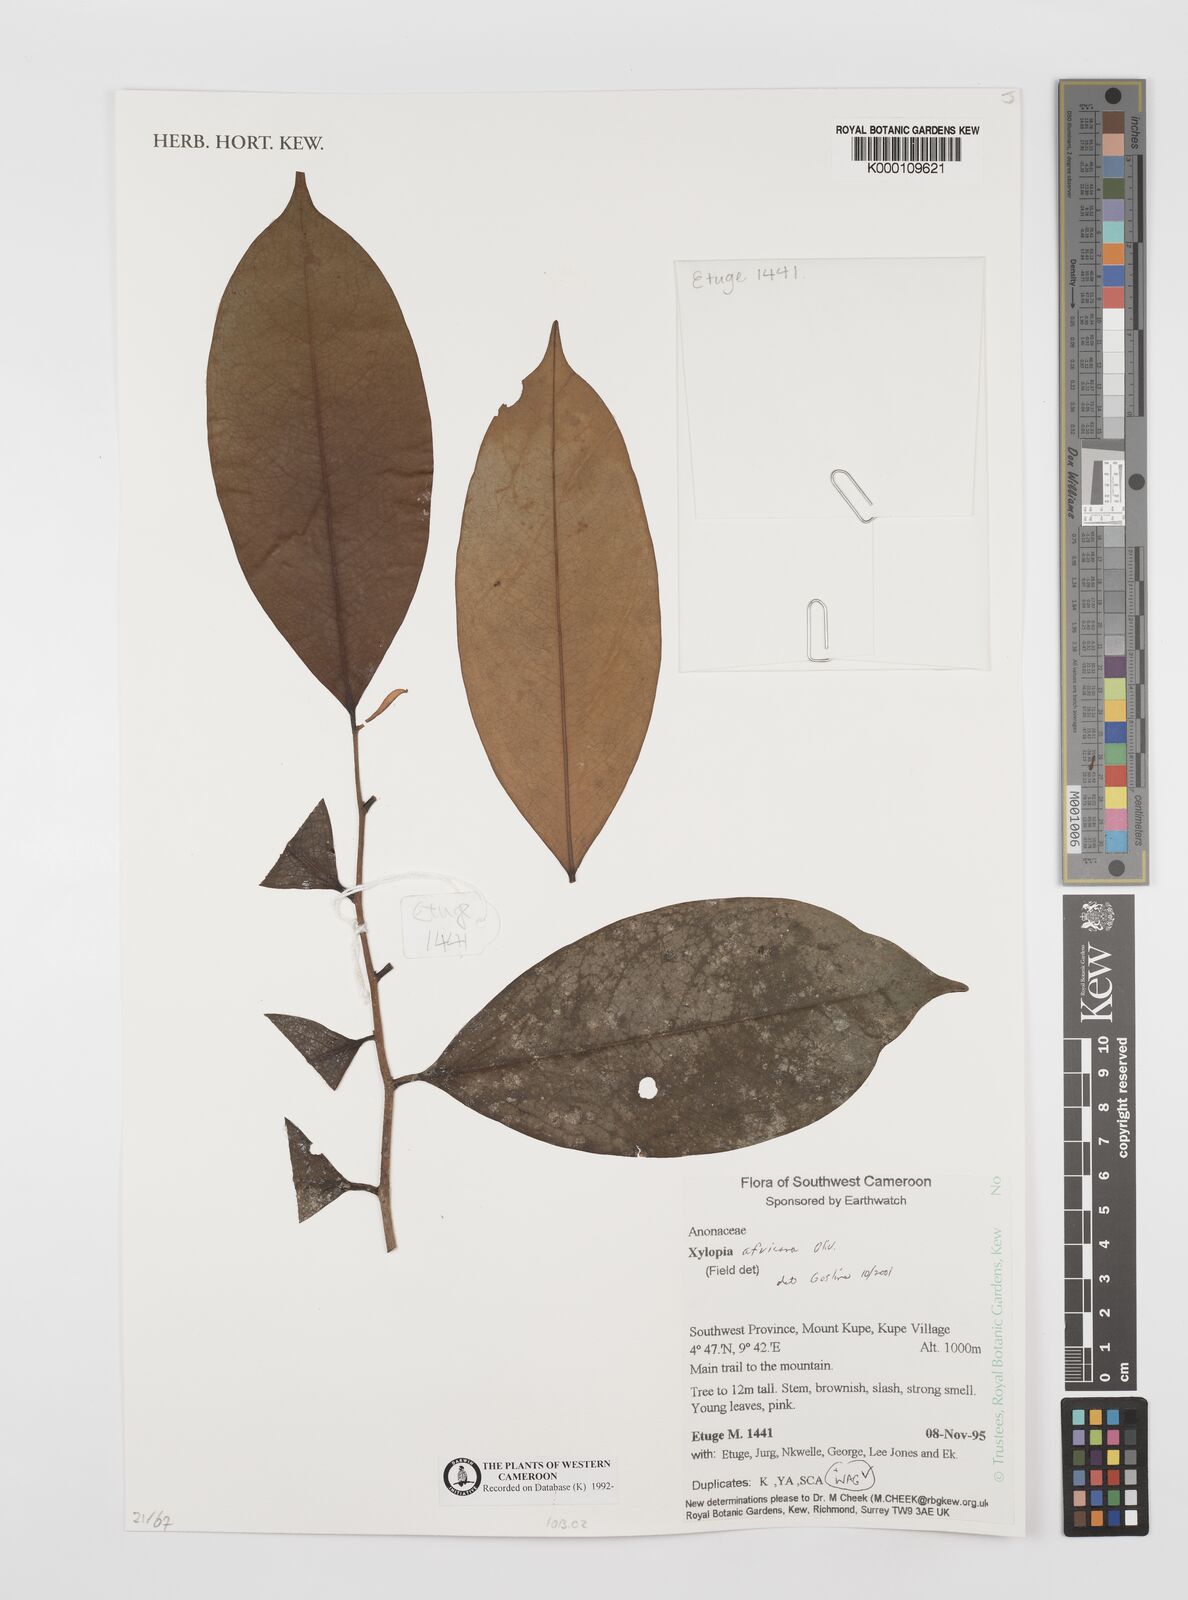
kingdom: Plantae
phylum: Tracheophyta
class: Magnoliopsida
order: Magnoliales
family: Annonaceae
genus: Xylopia
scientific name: Xylopia africana
